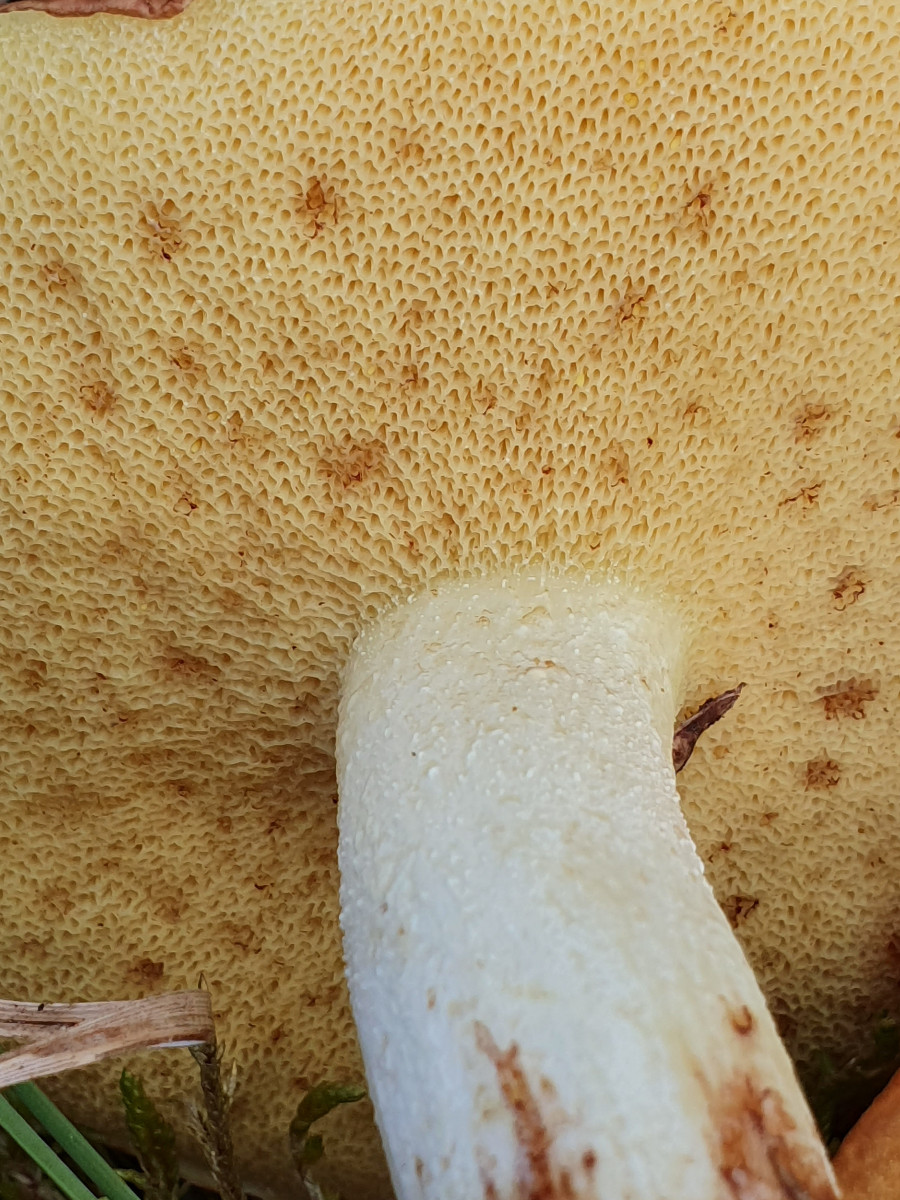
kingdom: Fungi
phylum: Basidiomycota
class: Agaricomycetes
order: Boletales
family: Suillaceae
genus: Suillus
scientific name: Suillus granulatus
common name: kornet slimrørhat
